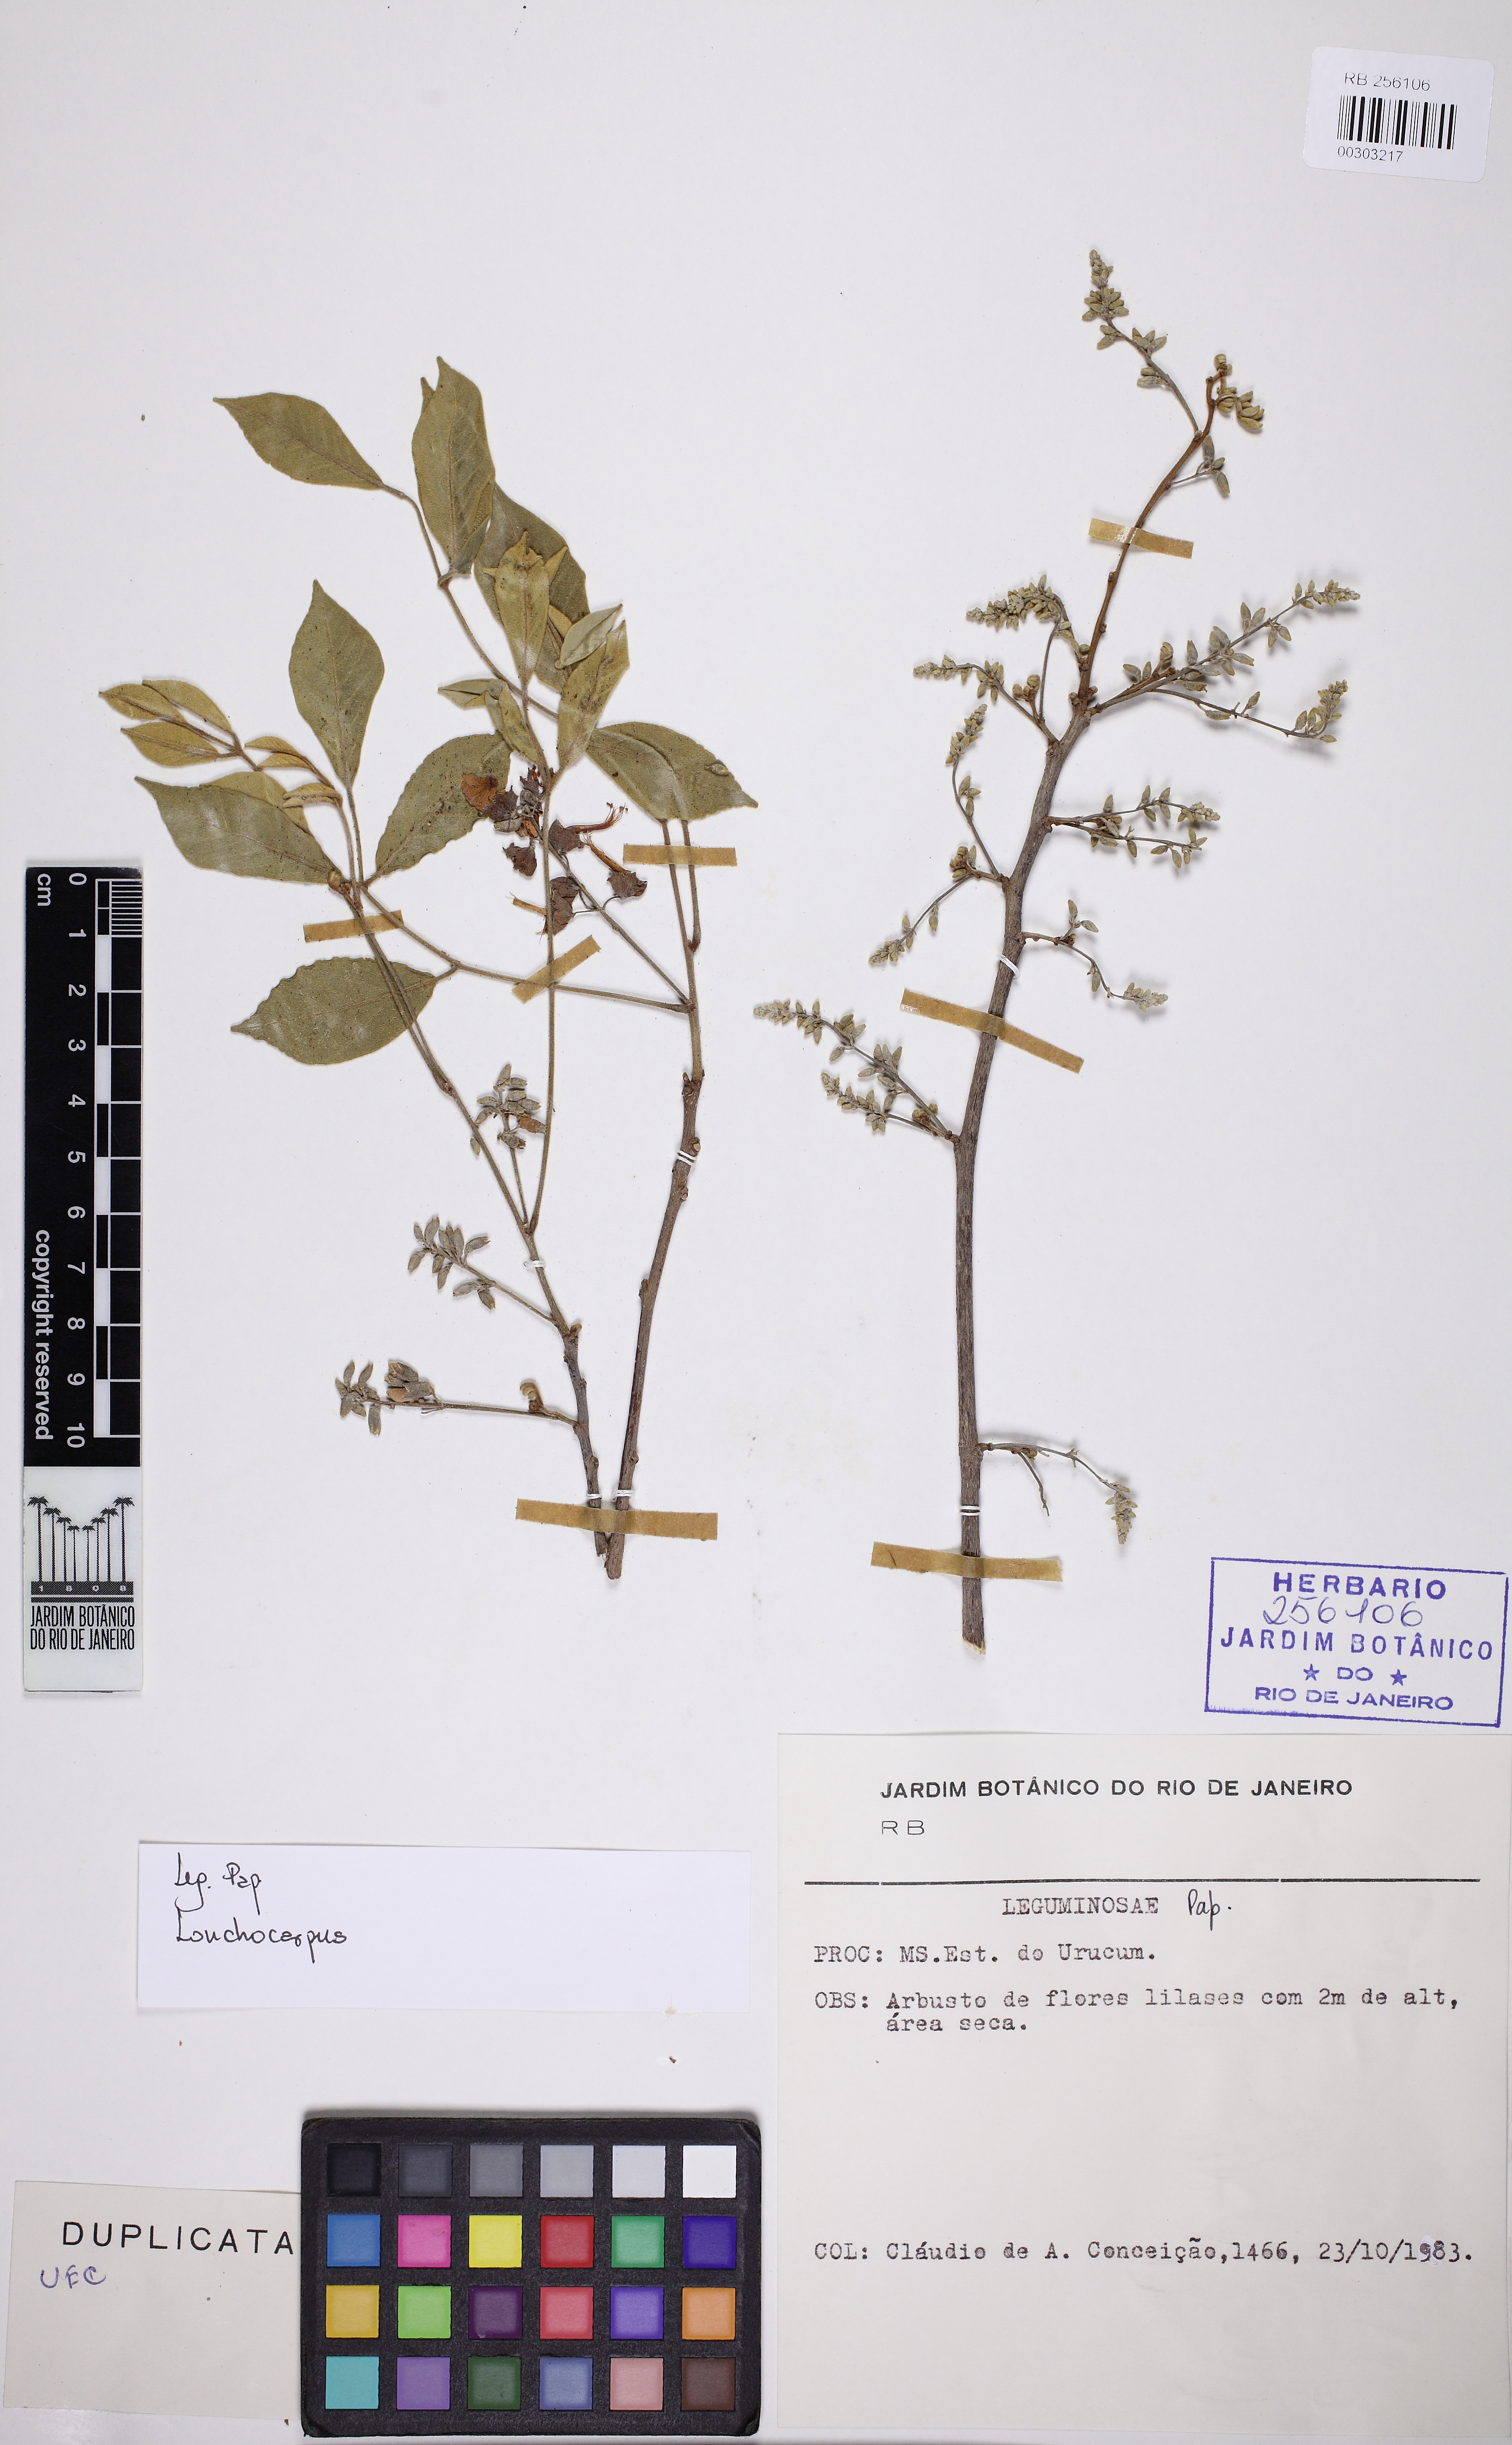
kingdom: Plantae
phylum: Tracheophyta
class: Magnoliopsida
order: Fabales
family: Fabaceae
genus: Muellera
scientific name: Muellera variabilis
